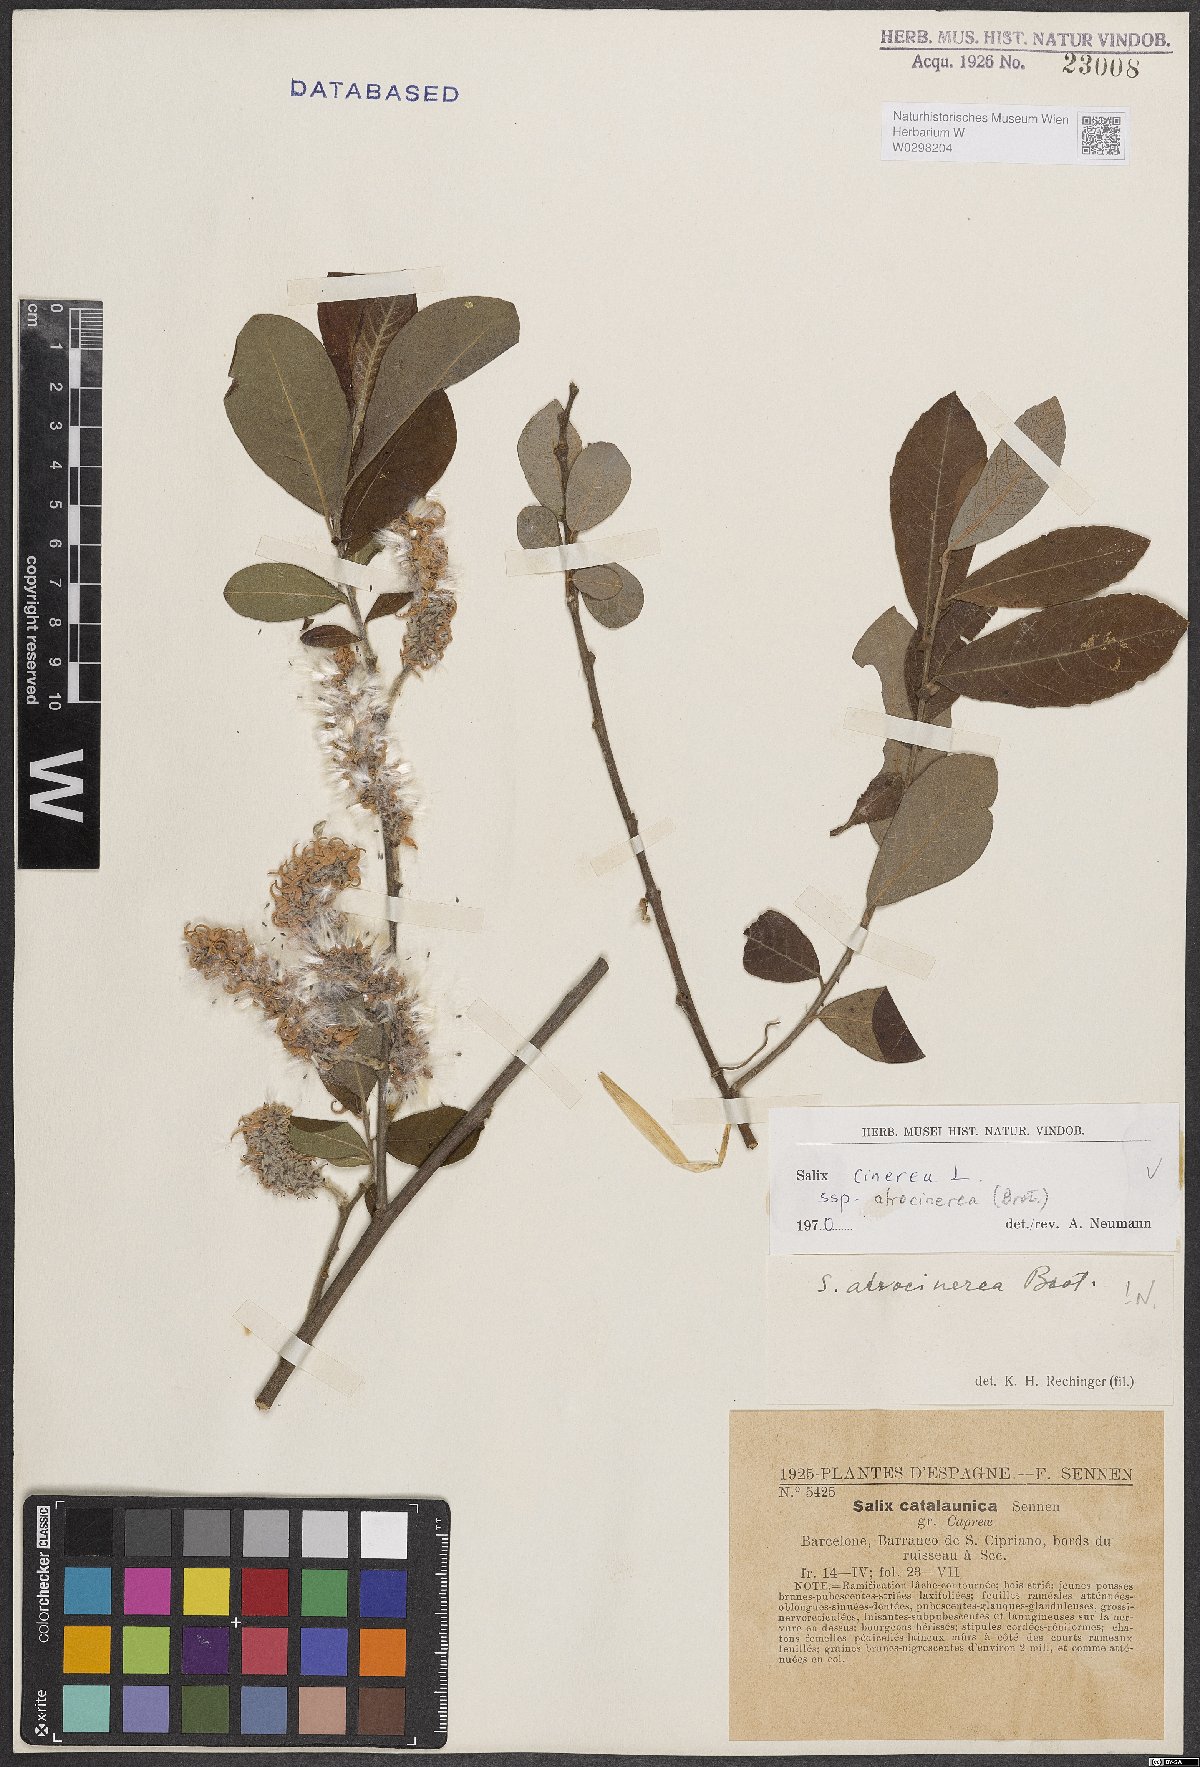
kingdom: Plantae
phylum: Tracheophyta
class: Magnoliopsida
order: Malpighiales
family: Salicaceae
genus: Salix
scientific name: Salix atrocinerea
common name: Rusty willow
